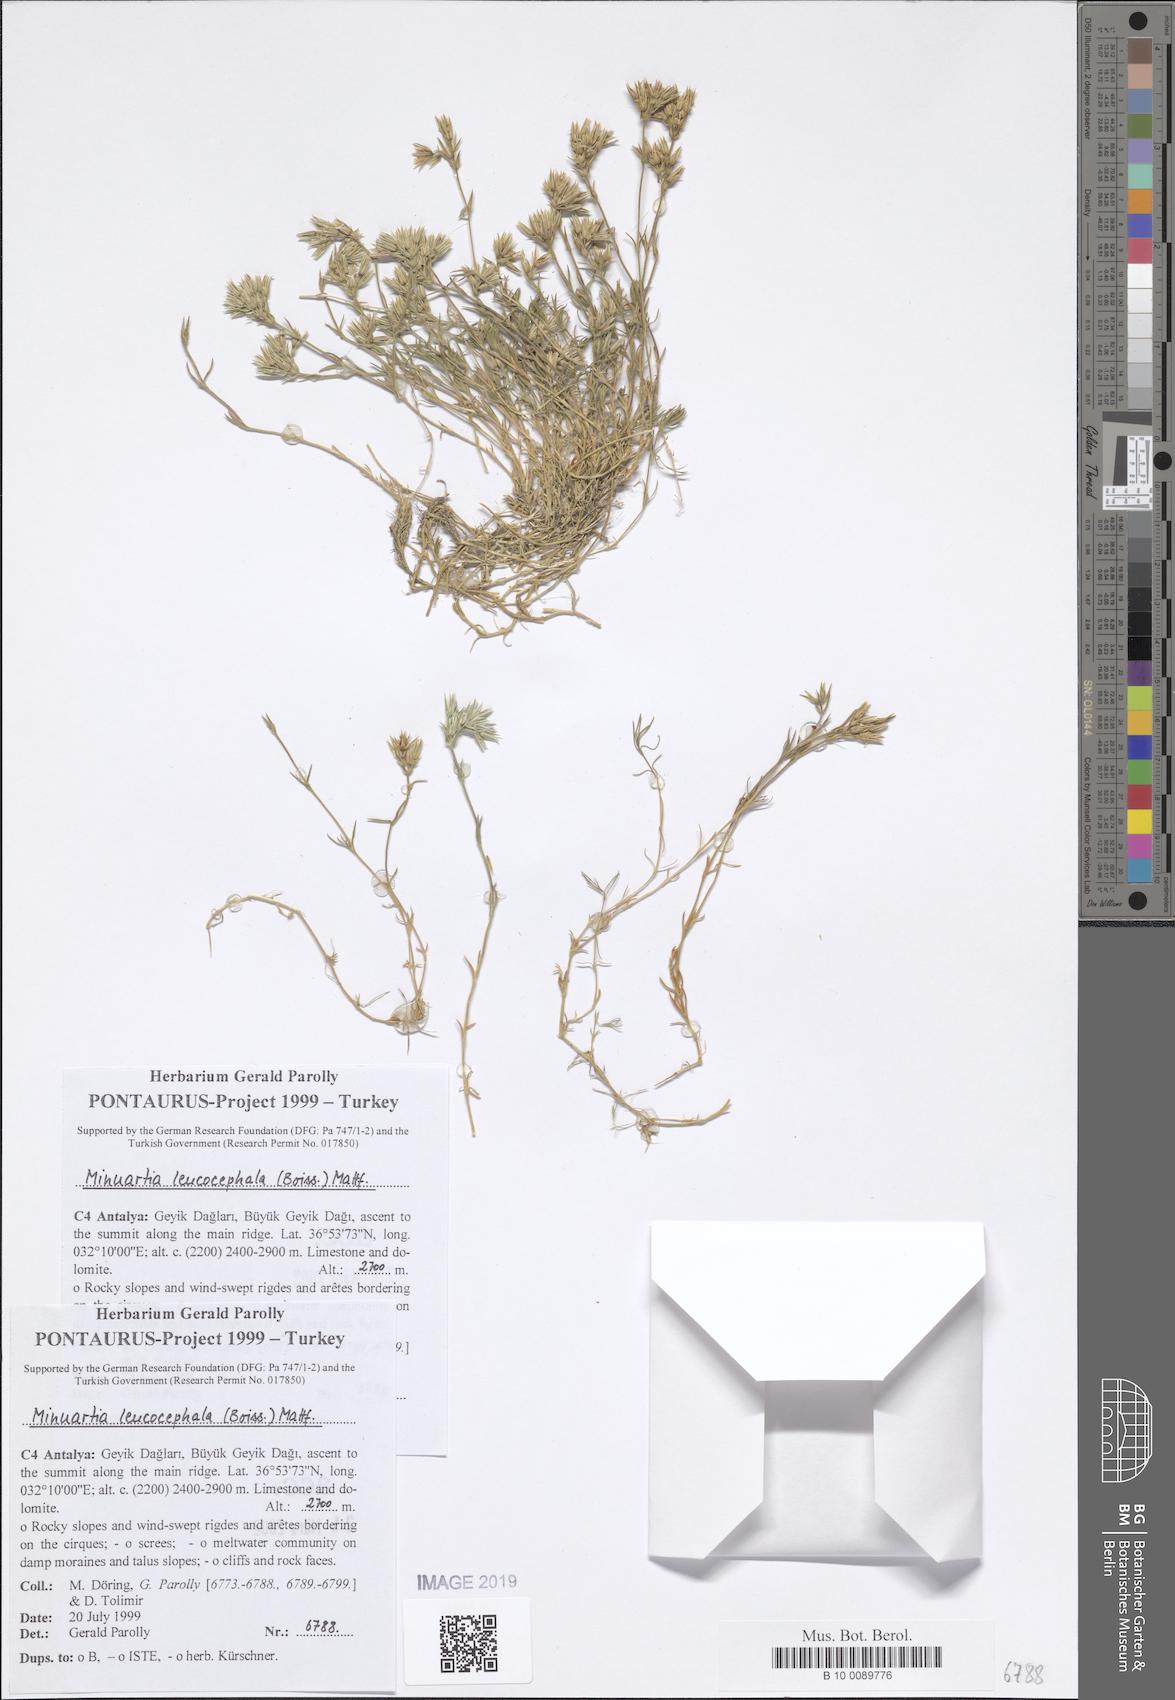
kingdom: Plantae
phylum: Tracheophyta
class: Magnoliopsida
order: Caryophyllales
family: Caryophyllaceae
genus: Minuartia
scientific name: Minuartia leucocephala
